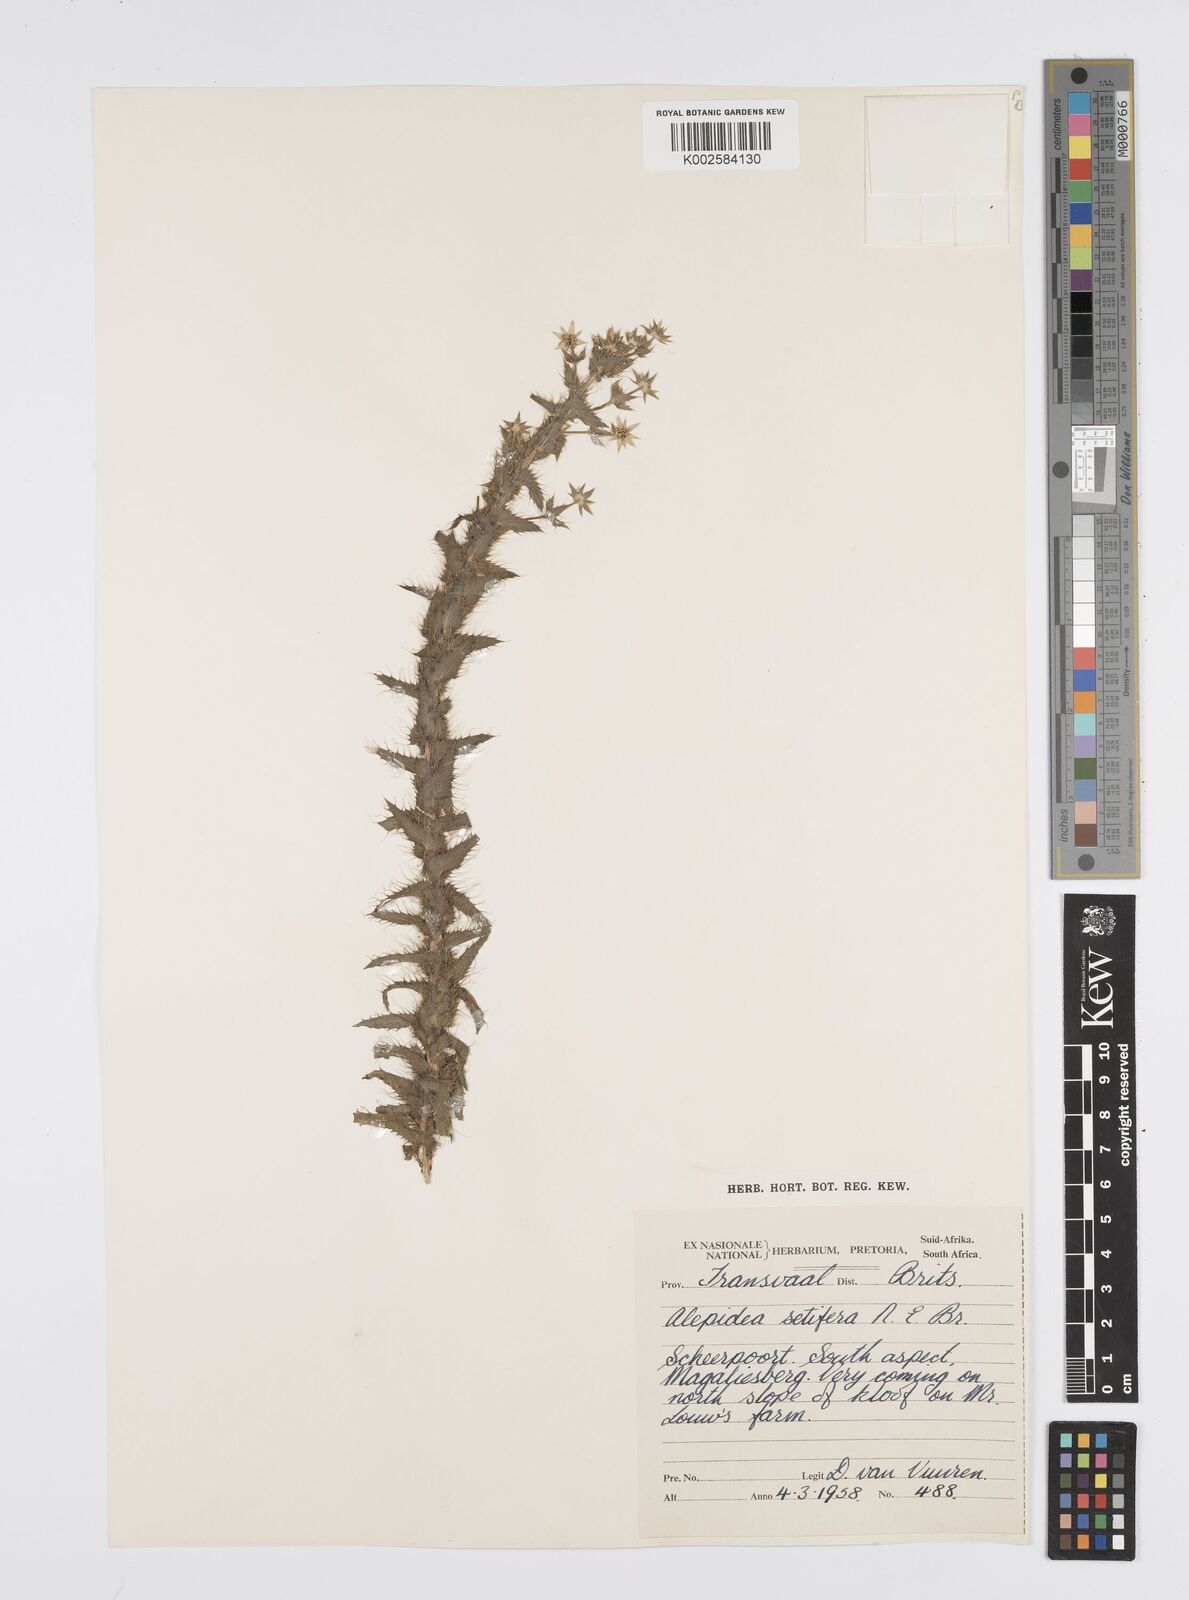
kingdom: Plantae
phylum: Tracheophyta
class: Magnoliopsida
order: Apiales
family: Apiaceae
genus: Alepidea
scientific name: Alepidea setifera
